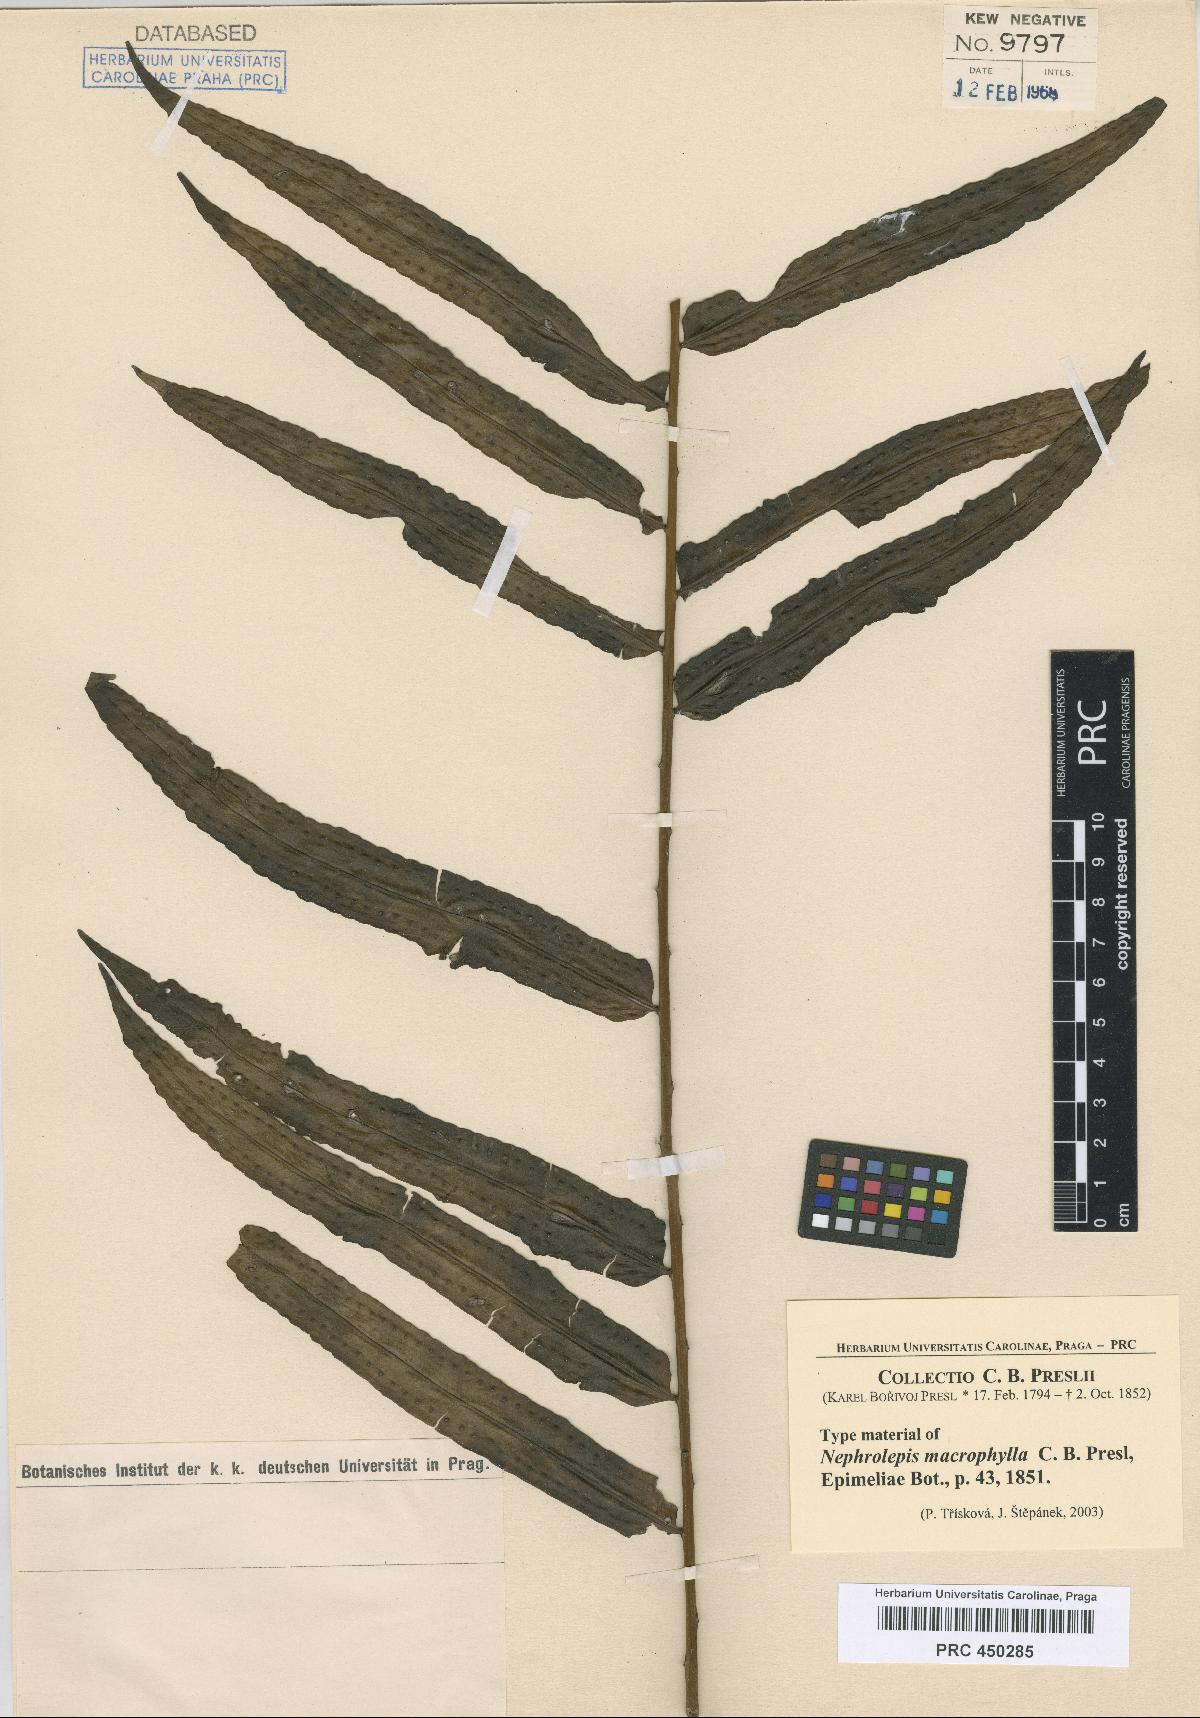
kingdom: Plantae
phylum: Tracheophyta
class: Polypodiopsida
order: Polypodiales
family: Nephrolepidaceae
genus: Nephrolepis
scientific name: Nephrolepis biserrata
